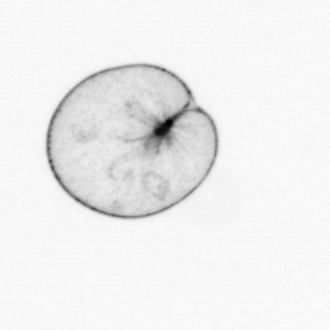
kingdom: Chromista
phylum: Myzozoa
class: Dinophyceae
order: Noctilucales
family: Noctilucaceae
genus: Noctiluca
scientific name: Noctiluca scintillans
